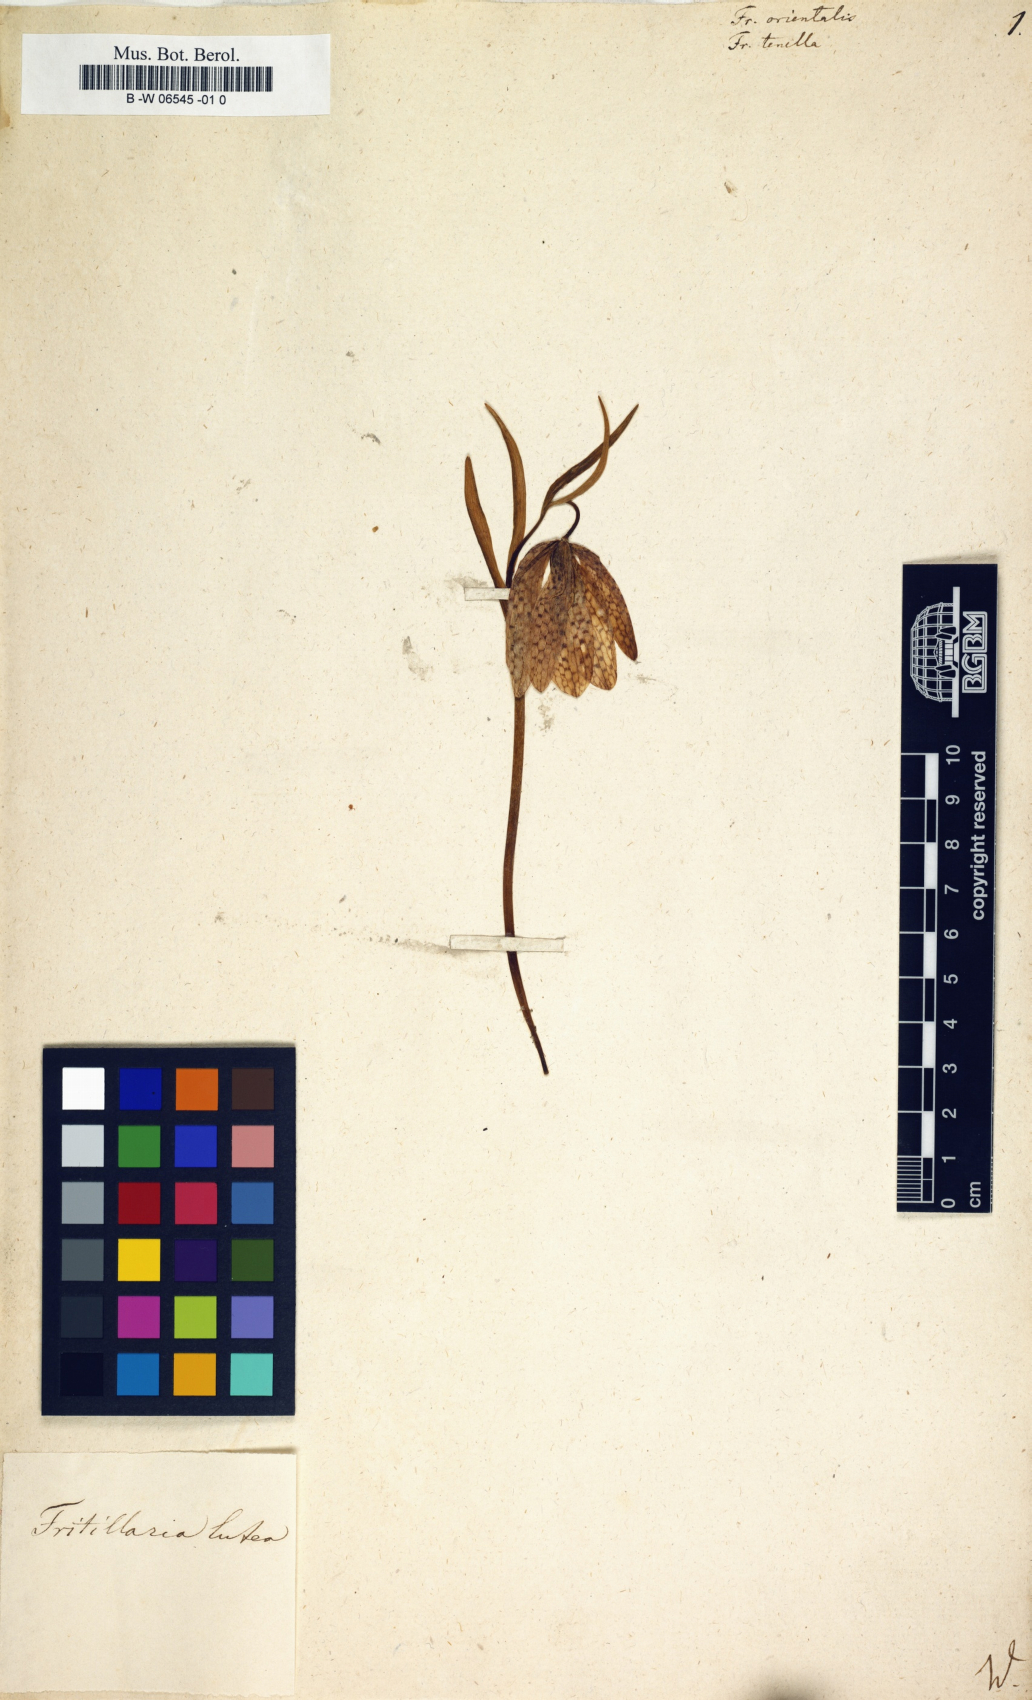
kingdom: Plantae
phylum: Tracheophyta
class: Liliopsida
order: Liliales
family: Liliaceae
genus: Fritillaria
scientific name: Fritillaria orientalis
